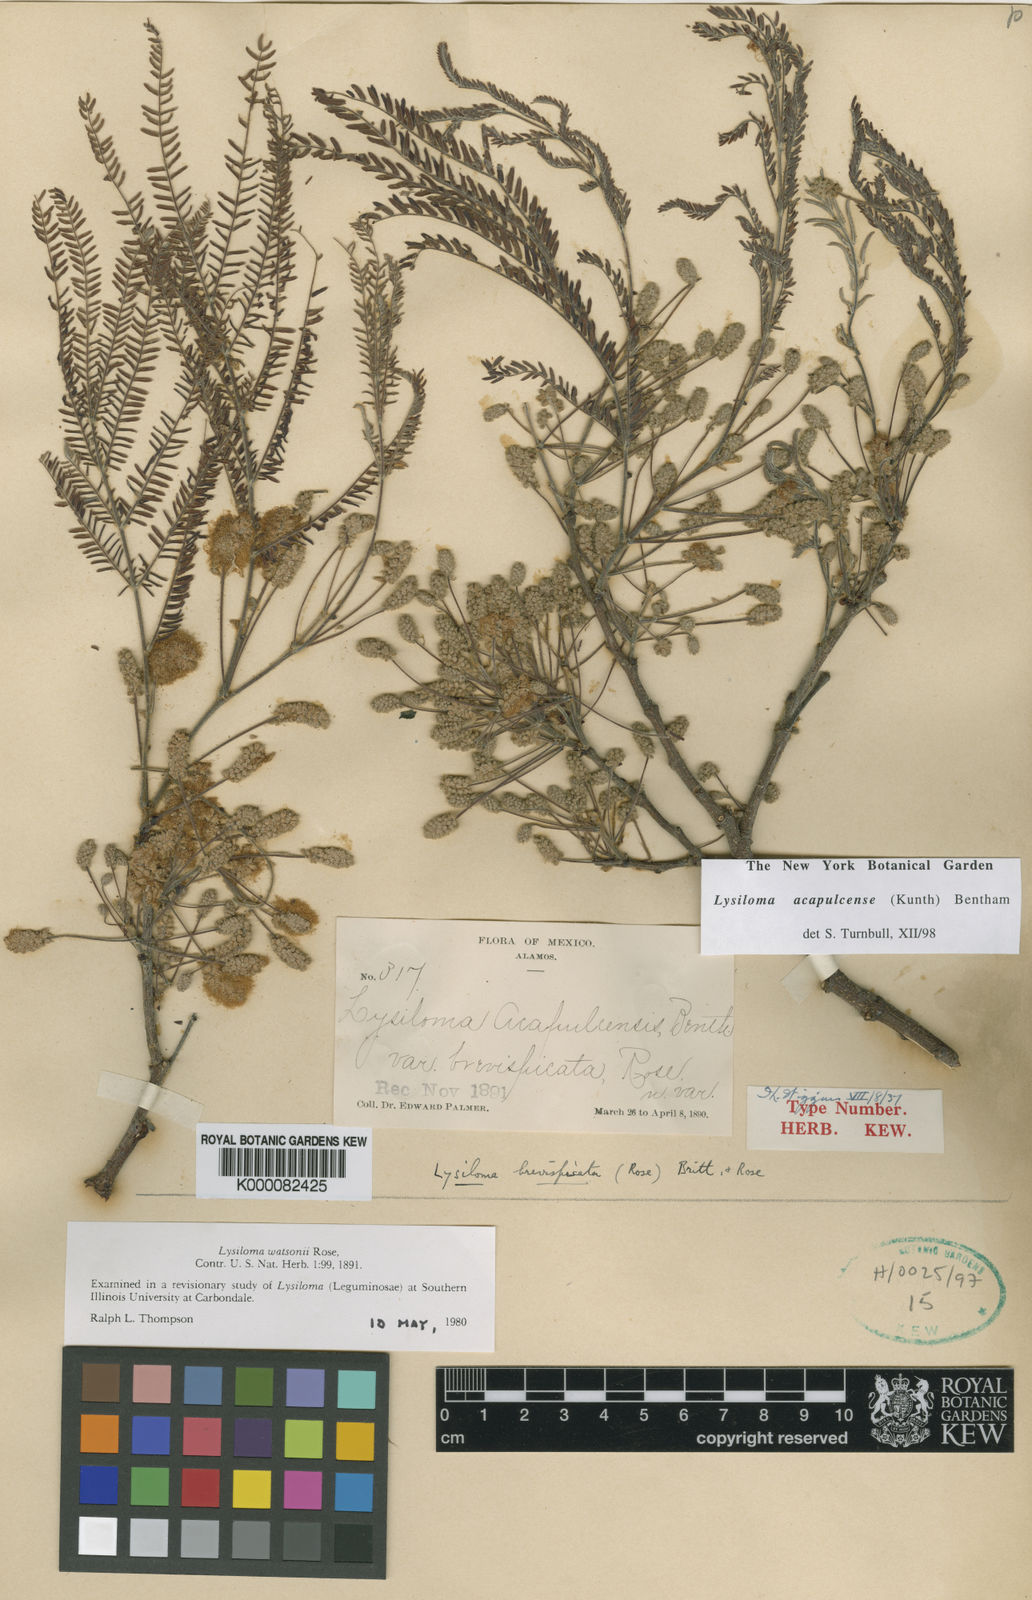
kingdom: Plantae
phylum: Tracheophyta
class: Magnoliopsida
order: Fabales
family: Fabaceae
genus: Lysiloma
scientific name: Lysiloma acapulcense
